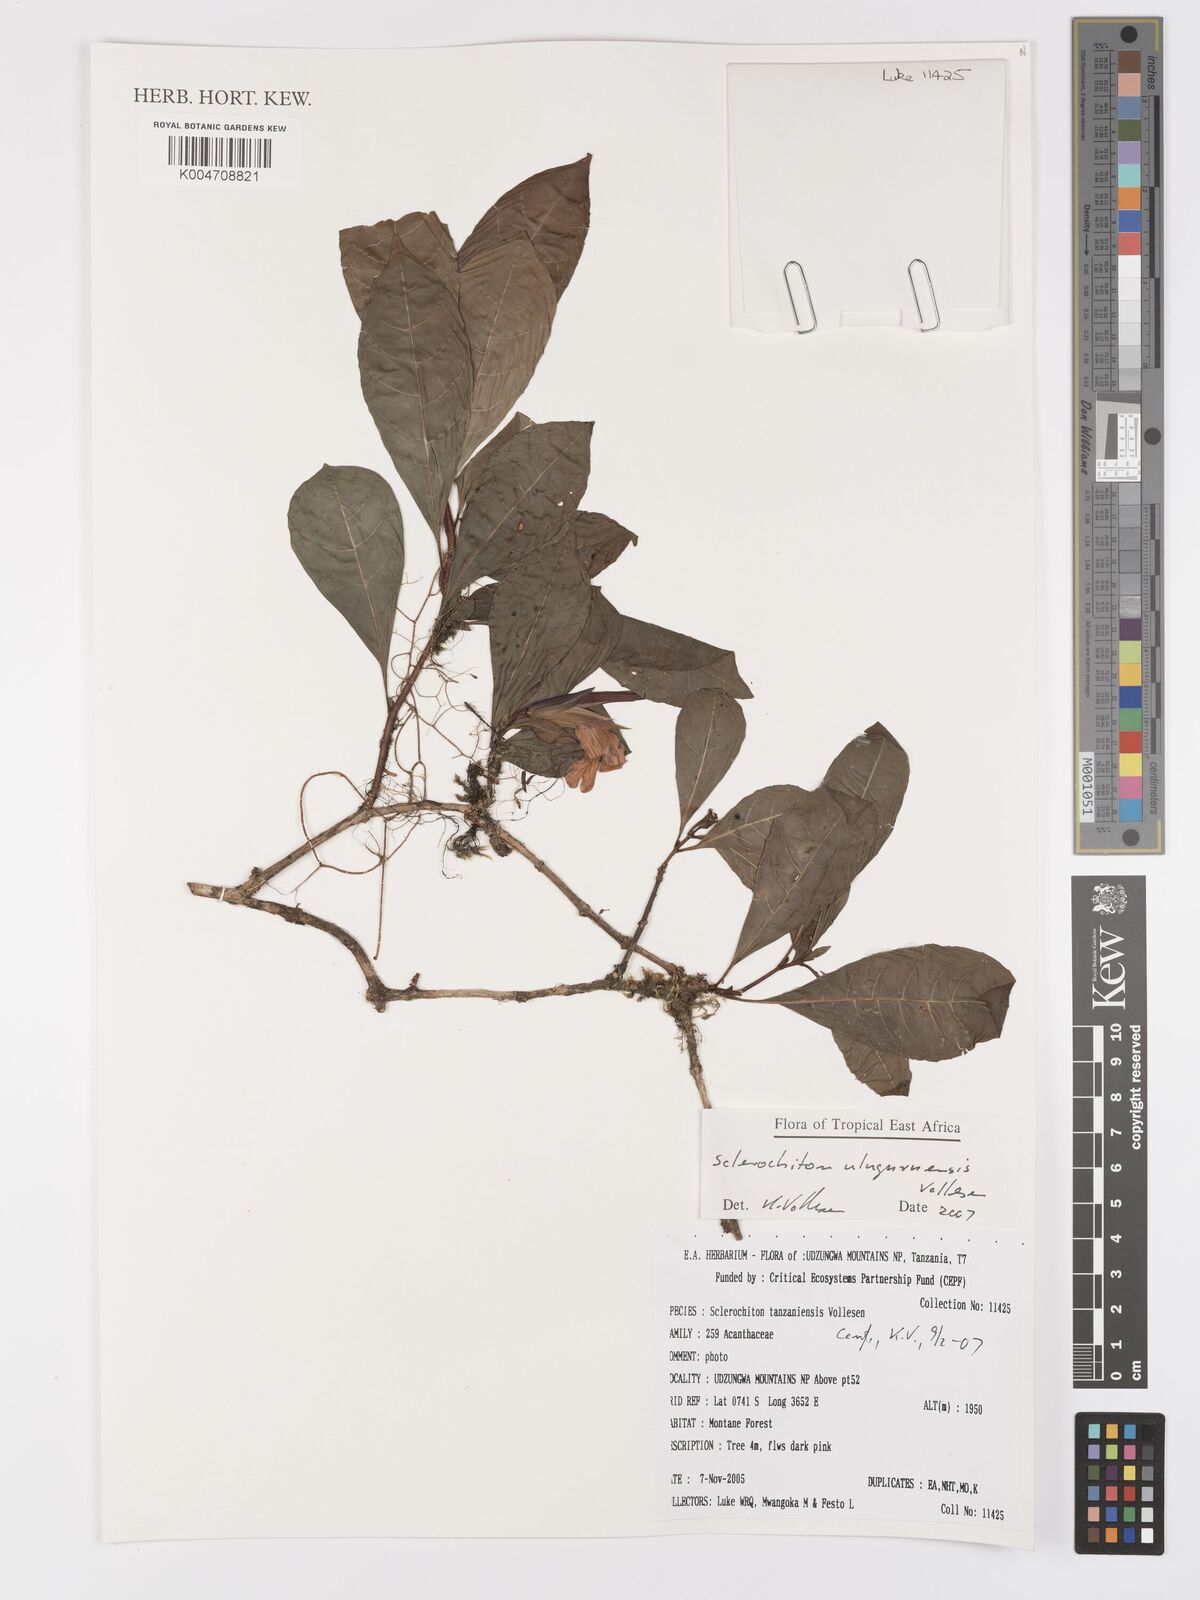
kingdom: Plantae
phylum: Tracheophyta
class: Magnoliopsida
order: Lamiales
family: Acanthaceae
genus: Sclerochiton
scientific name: Sclerochiton uluguruensis
